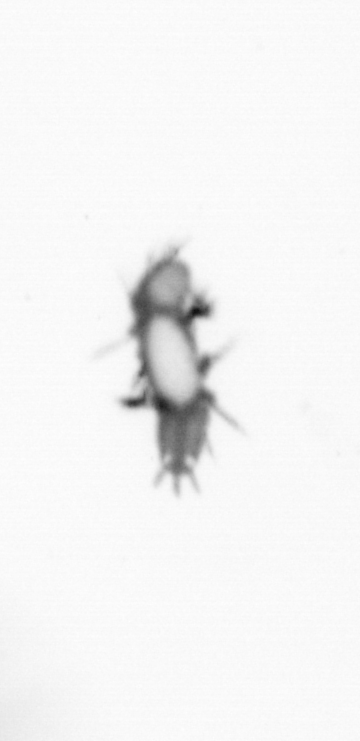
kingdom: Animalia
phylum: Annelida
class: Polychaeta
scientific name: Polychaeta
